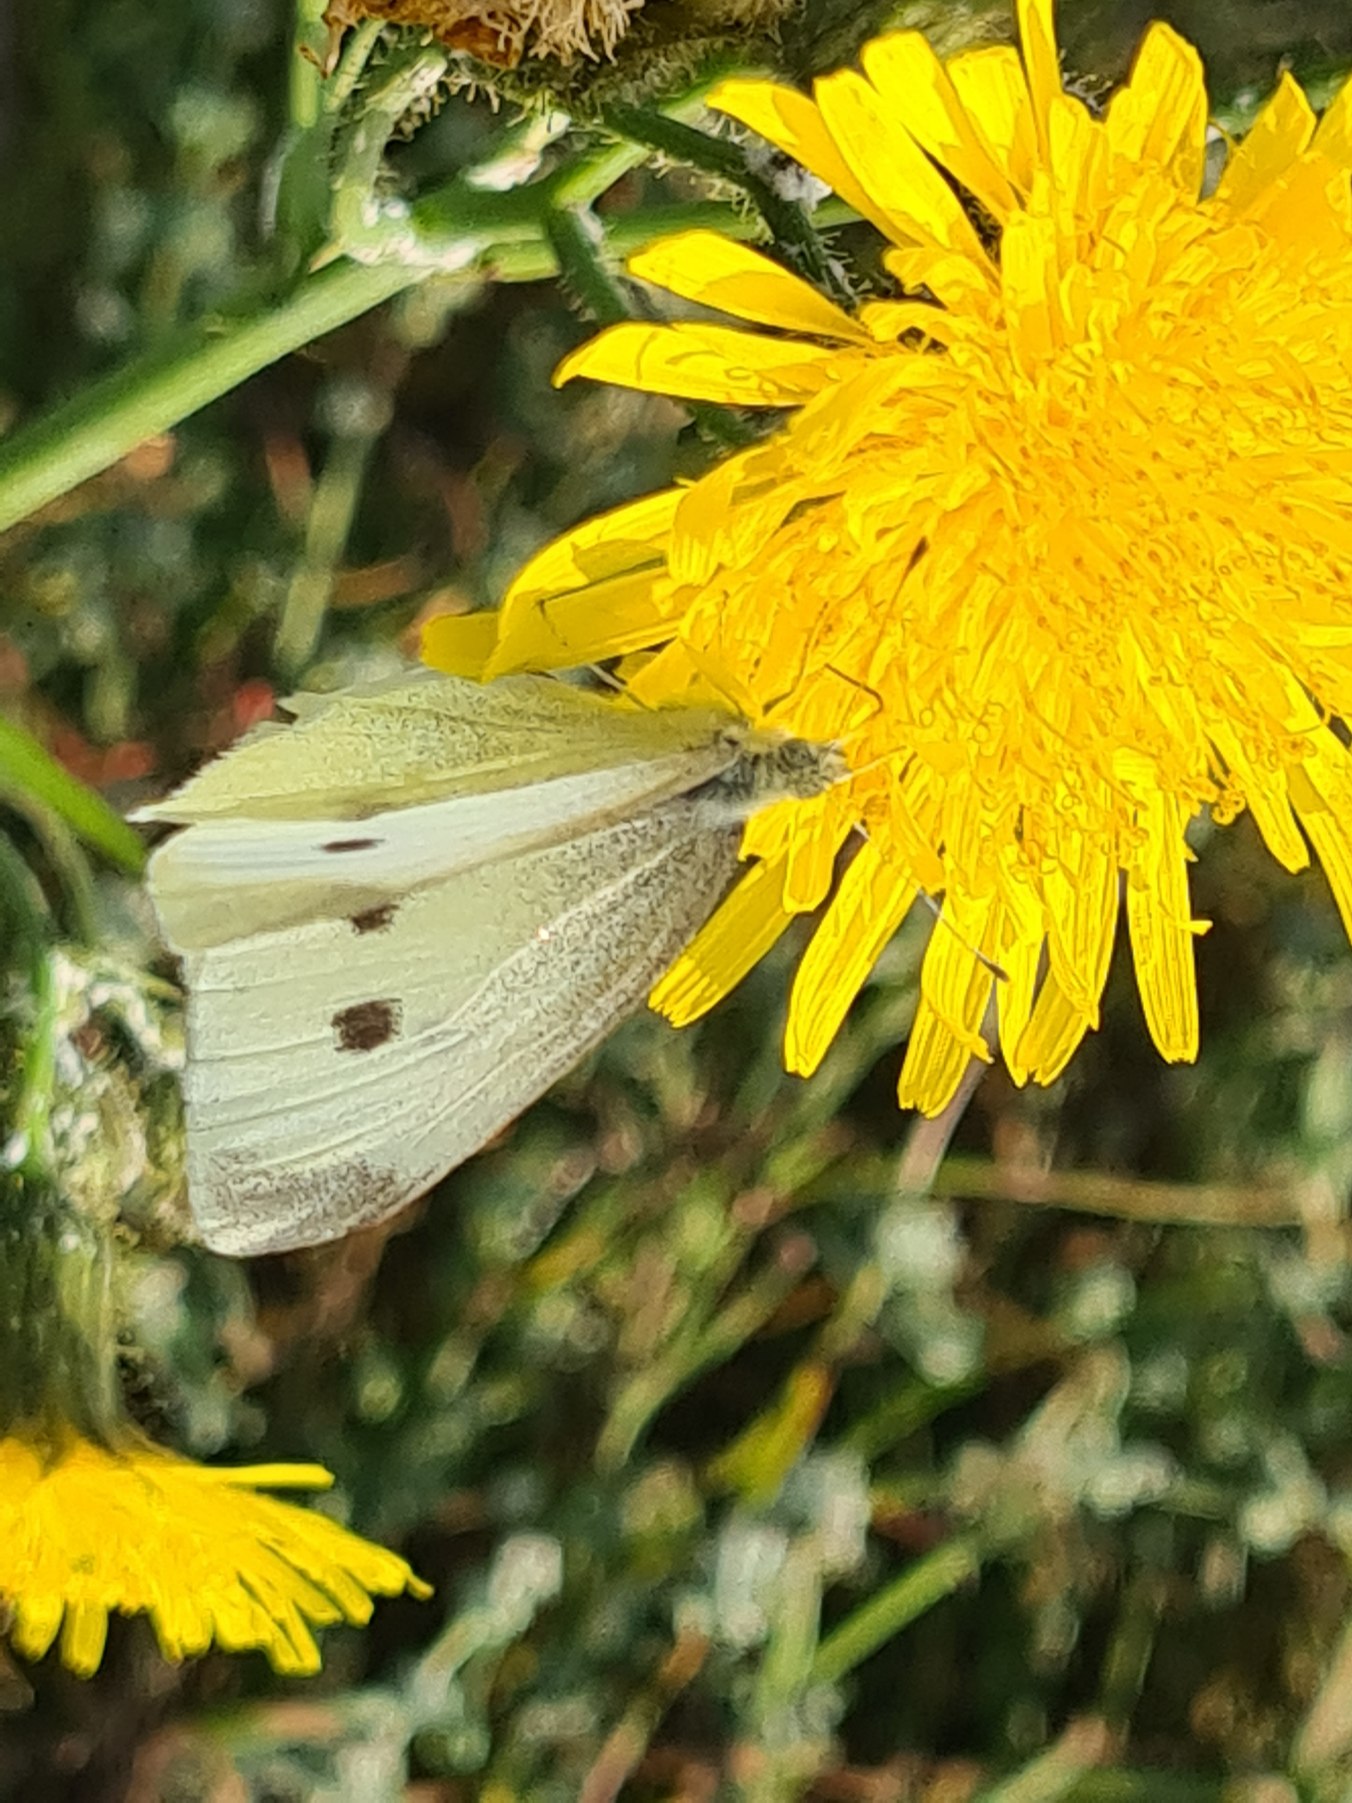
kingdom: Animalia
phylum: Arthropoda
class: Insecta
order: Lepidoptera
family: Pieridae
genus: Pieris
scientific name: Pieris rapae
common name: Lille kålsommerfugl
